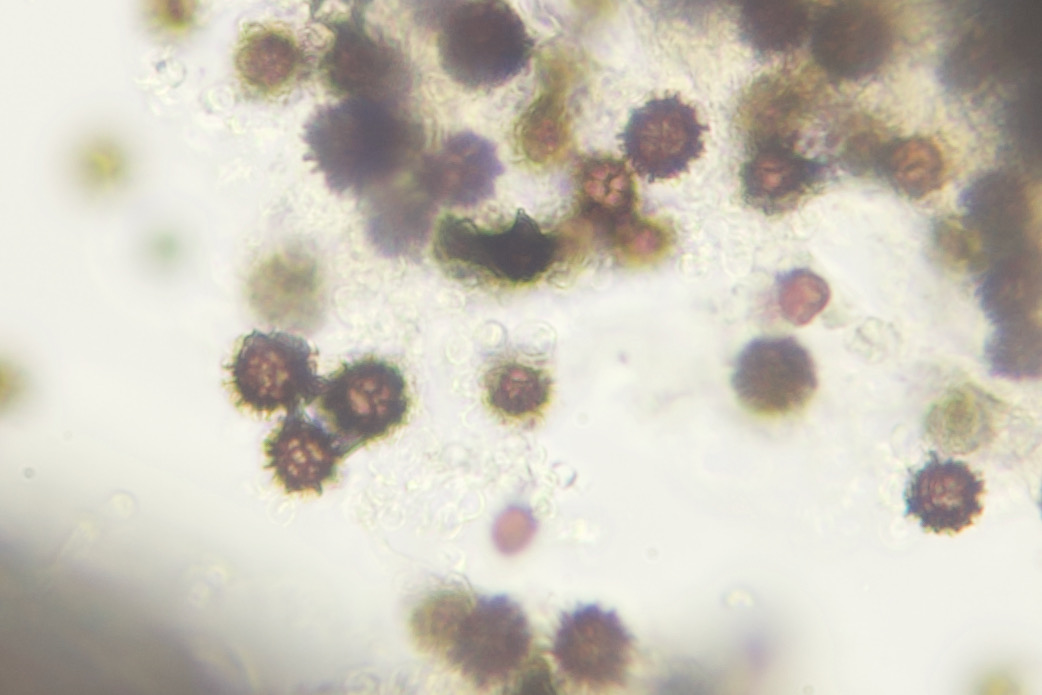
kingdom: Fungi
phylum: Basidiomycota
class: Agaricomycetes
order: Boletales
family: Sclerodermataceae
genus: Scleroderma
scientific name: Scleroderma bovista
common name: bovist-bruskbold
